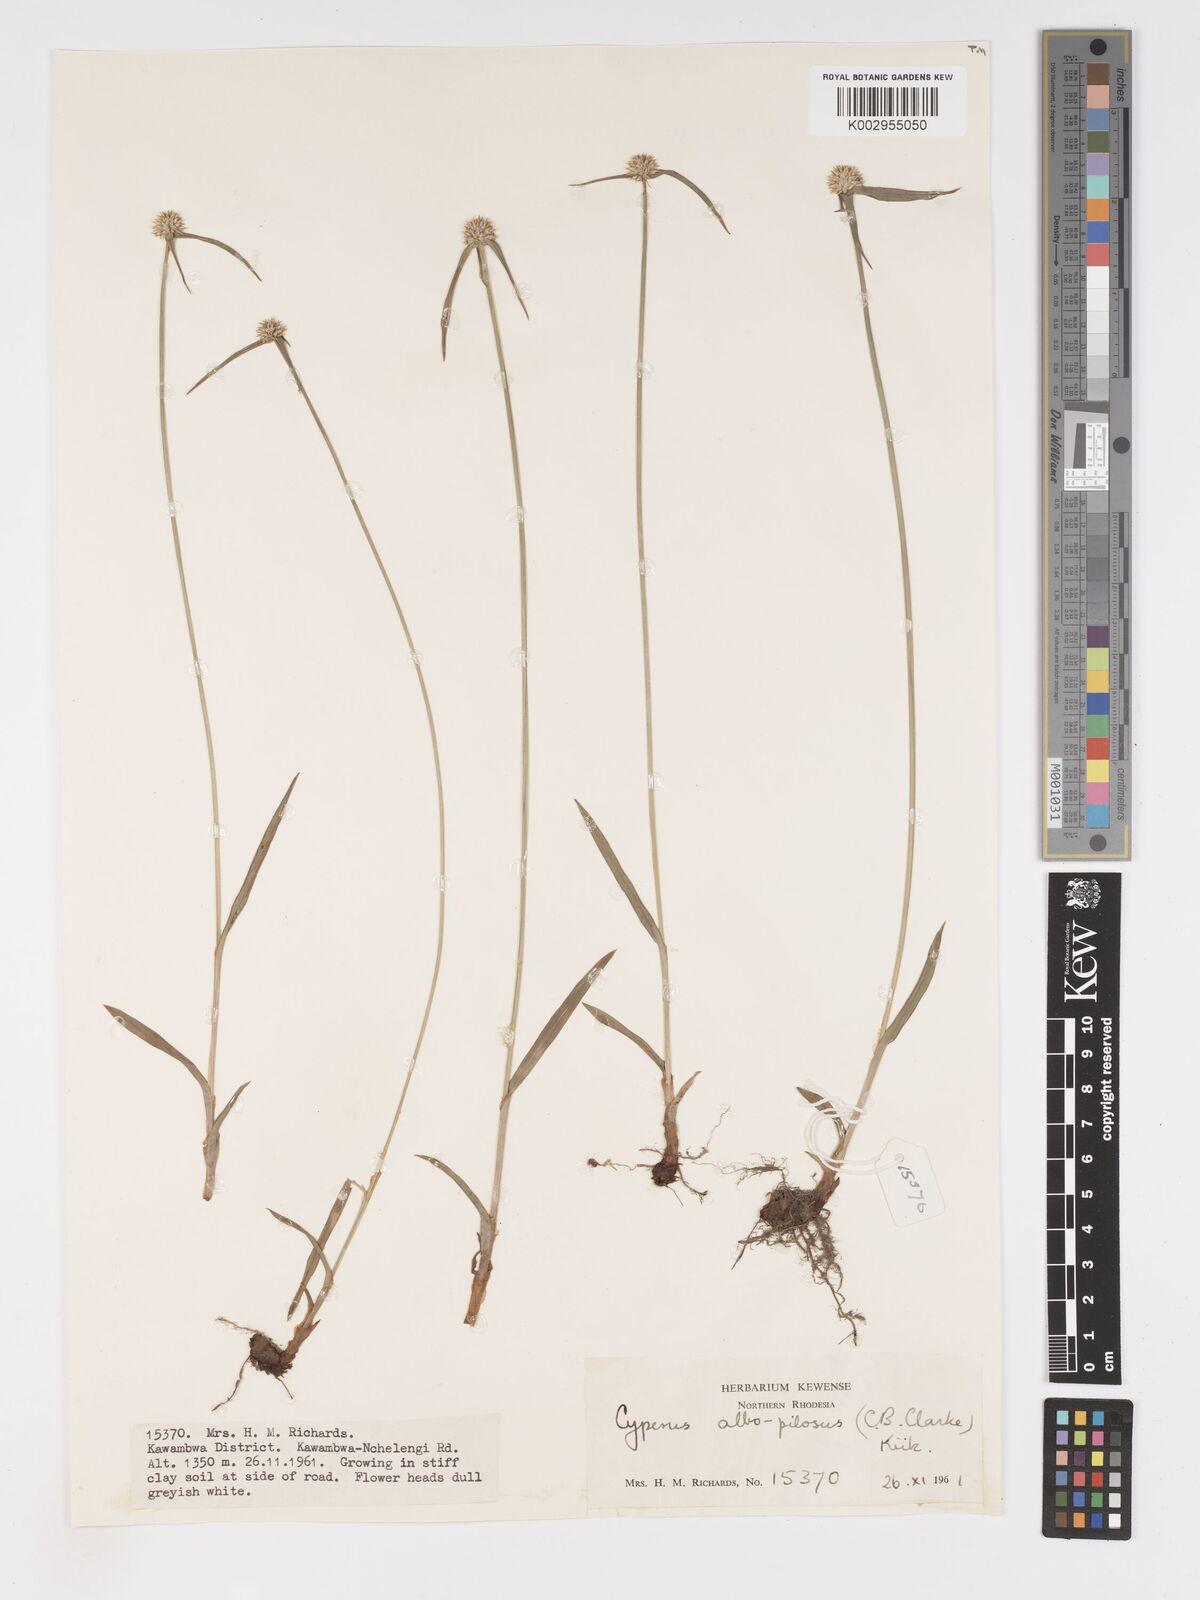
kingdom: Plantae
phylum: Tracheophyta
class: Liliopsida
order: Poales
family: Cyperaceae
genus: Cyperus
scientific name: Cyperus albopilosus
